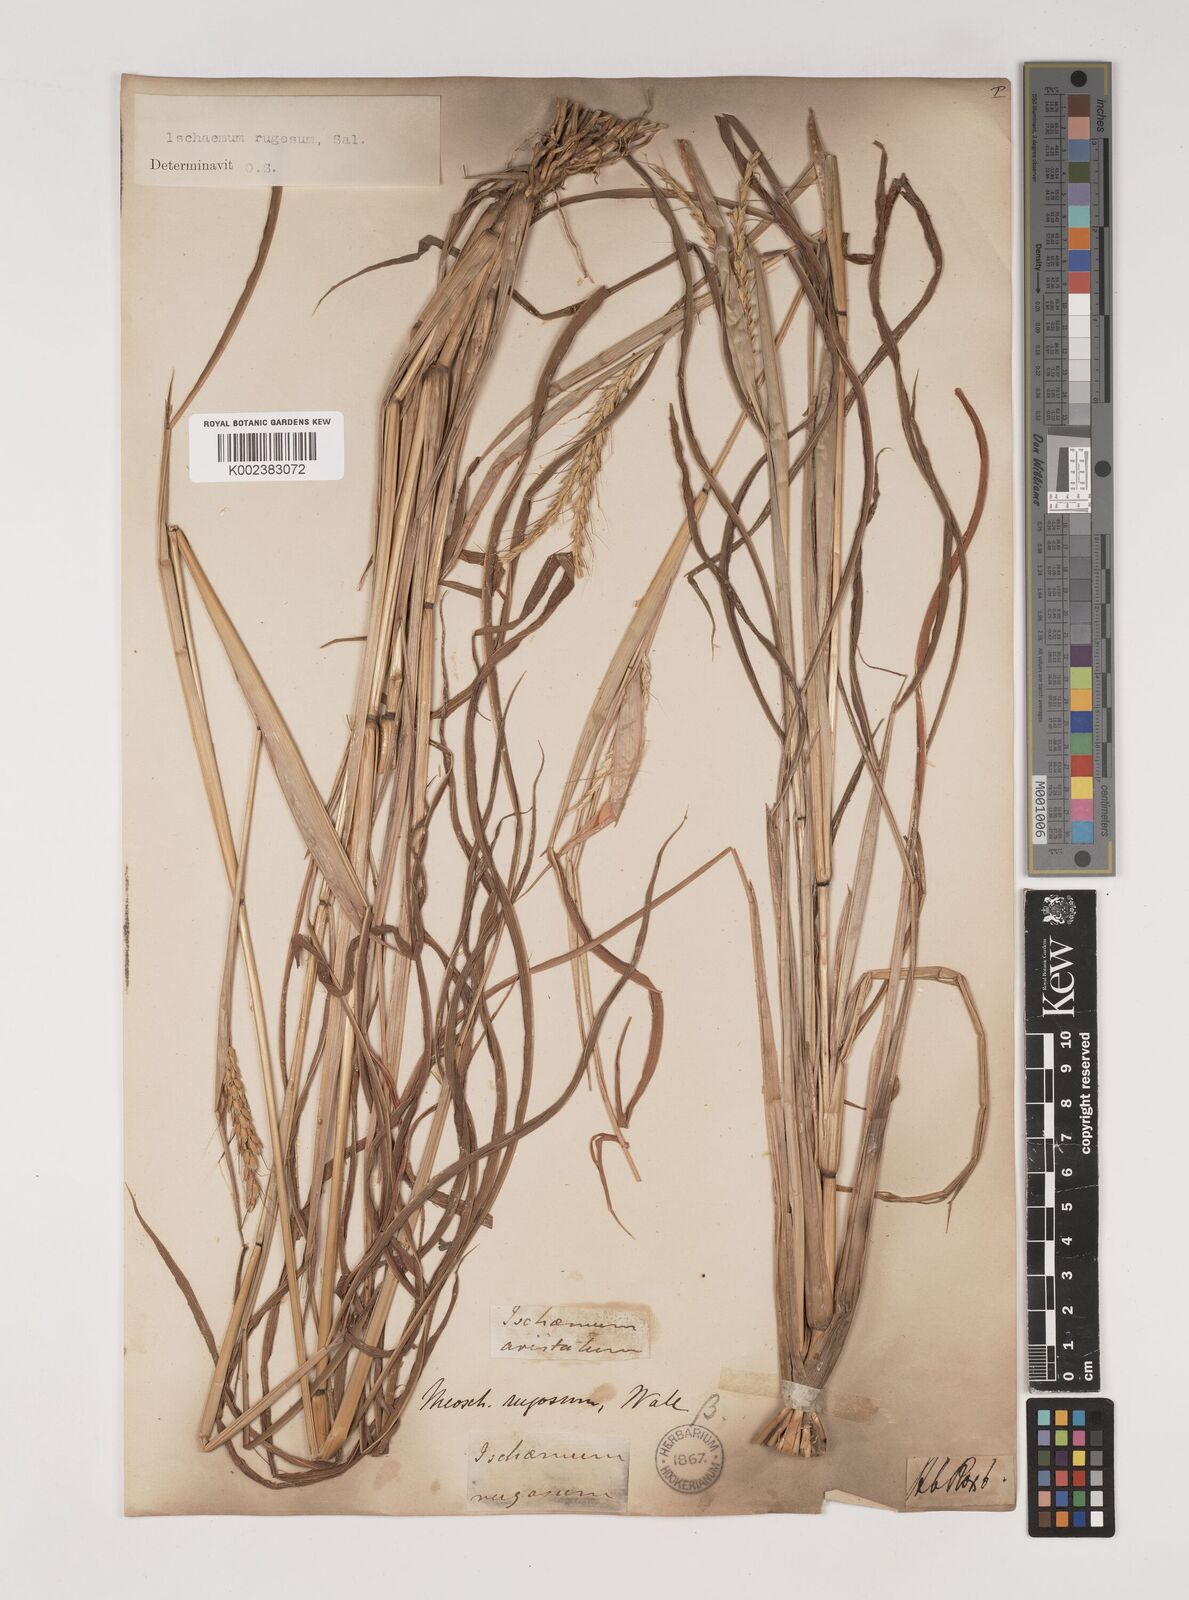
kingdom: Plantae
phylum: Tracheophyta
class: Liliopsida
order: Poales
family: Poaceae
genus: Ischaemum
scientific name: Ischaemum rugosum
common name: Saramatta grass
